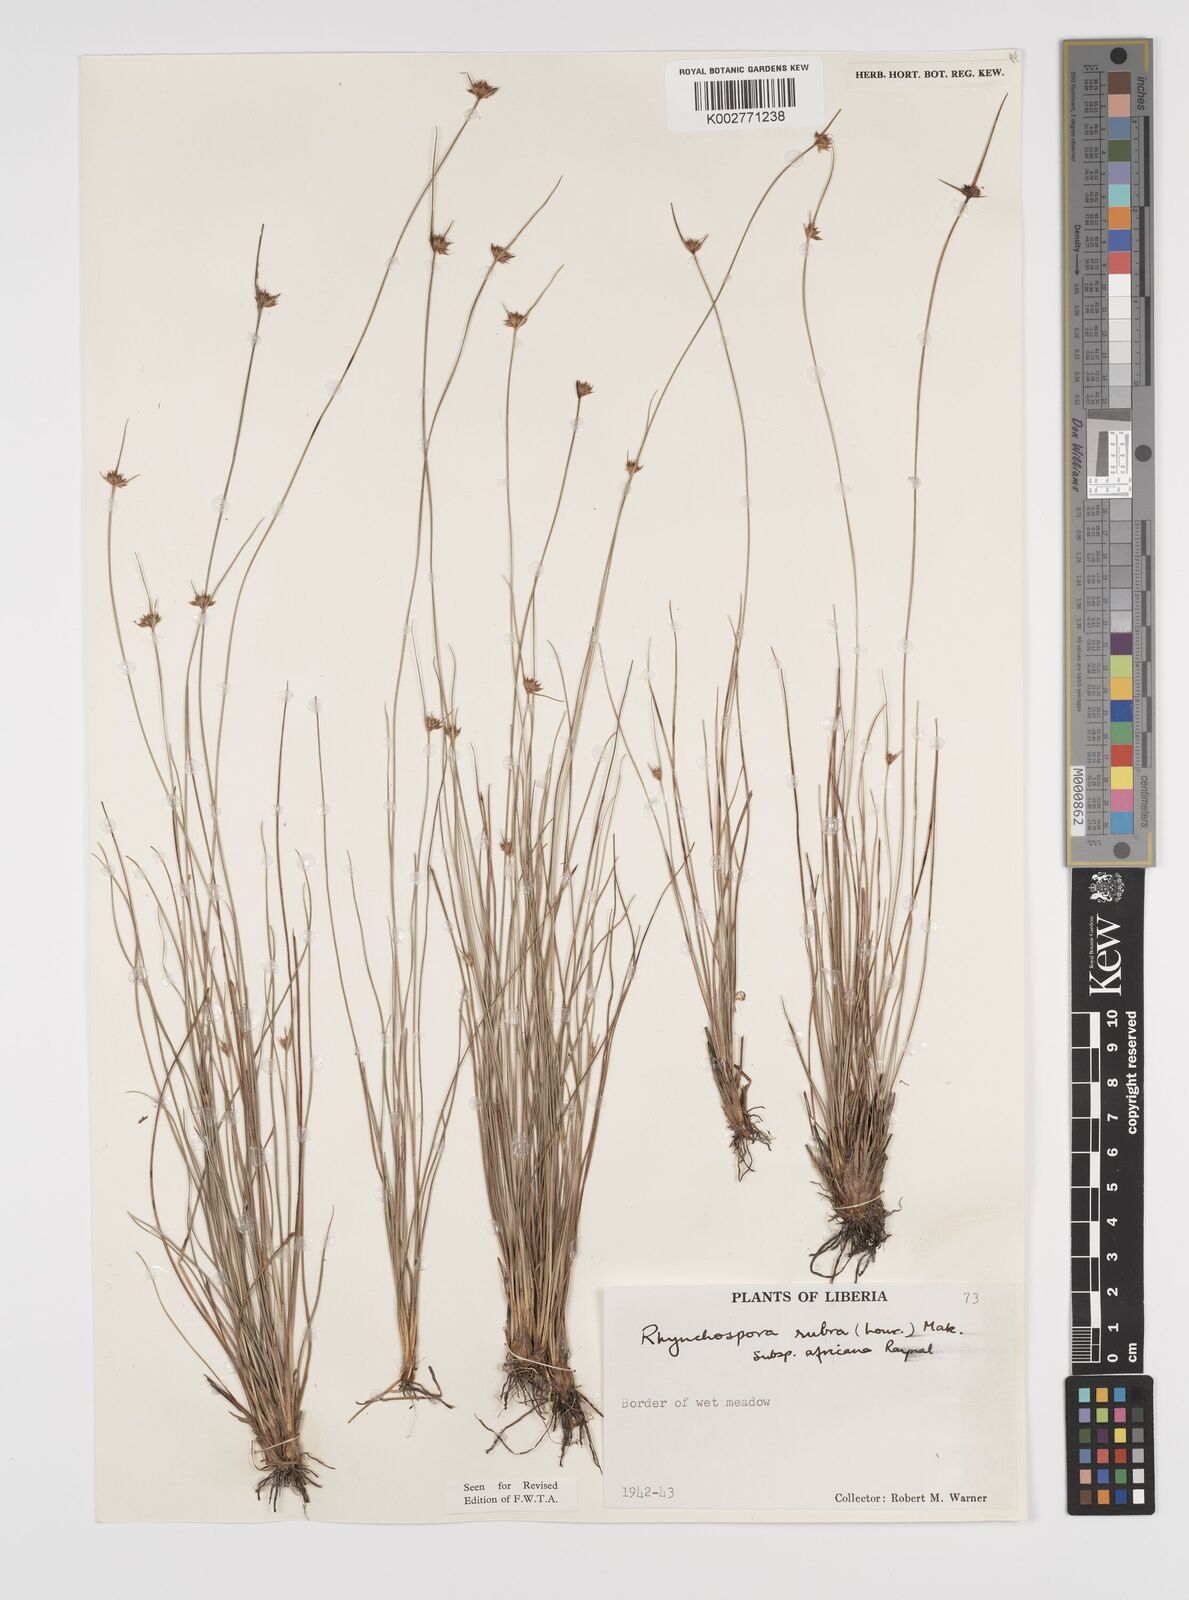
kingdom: Plantae
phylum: Tracheophyta
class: Liliopsida
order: Poales
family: Cyperaceae
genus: Rhynchospora
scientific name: Rhynchospora rubra
